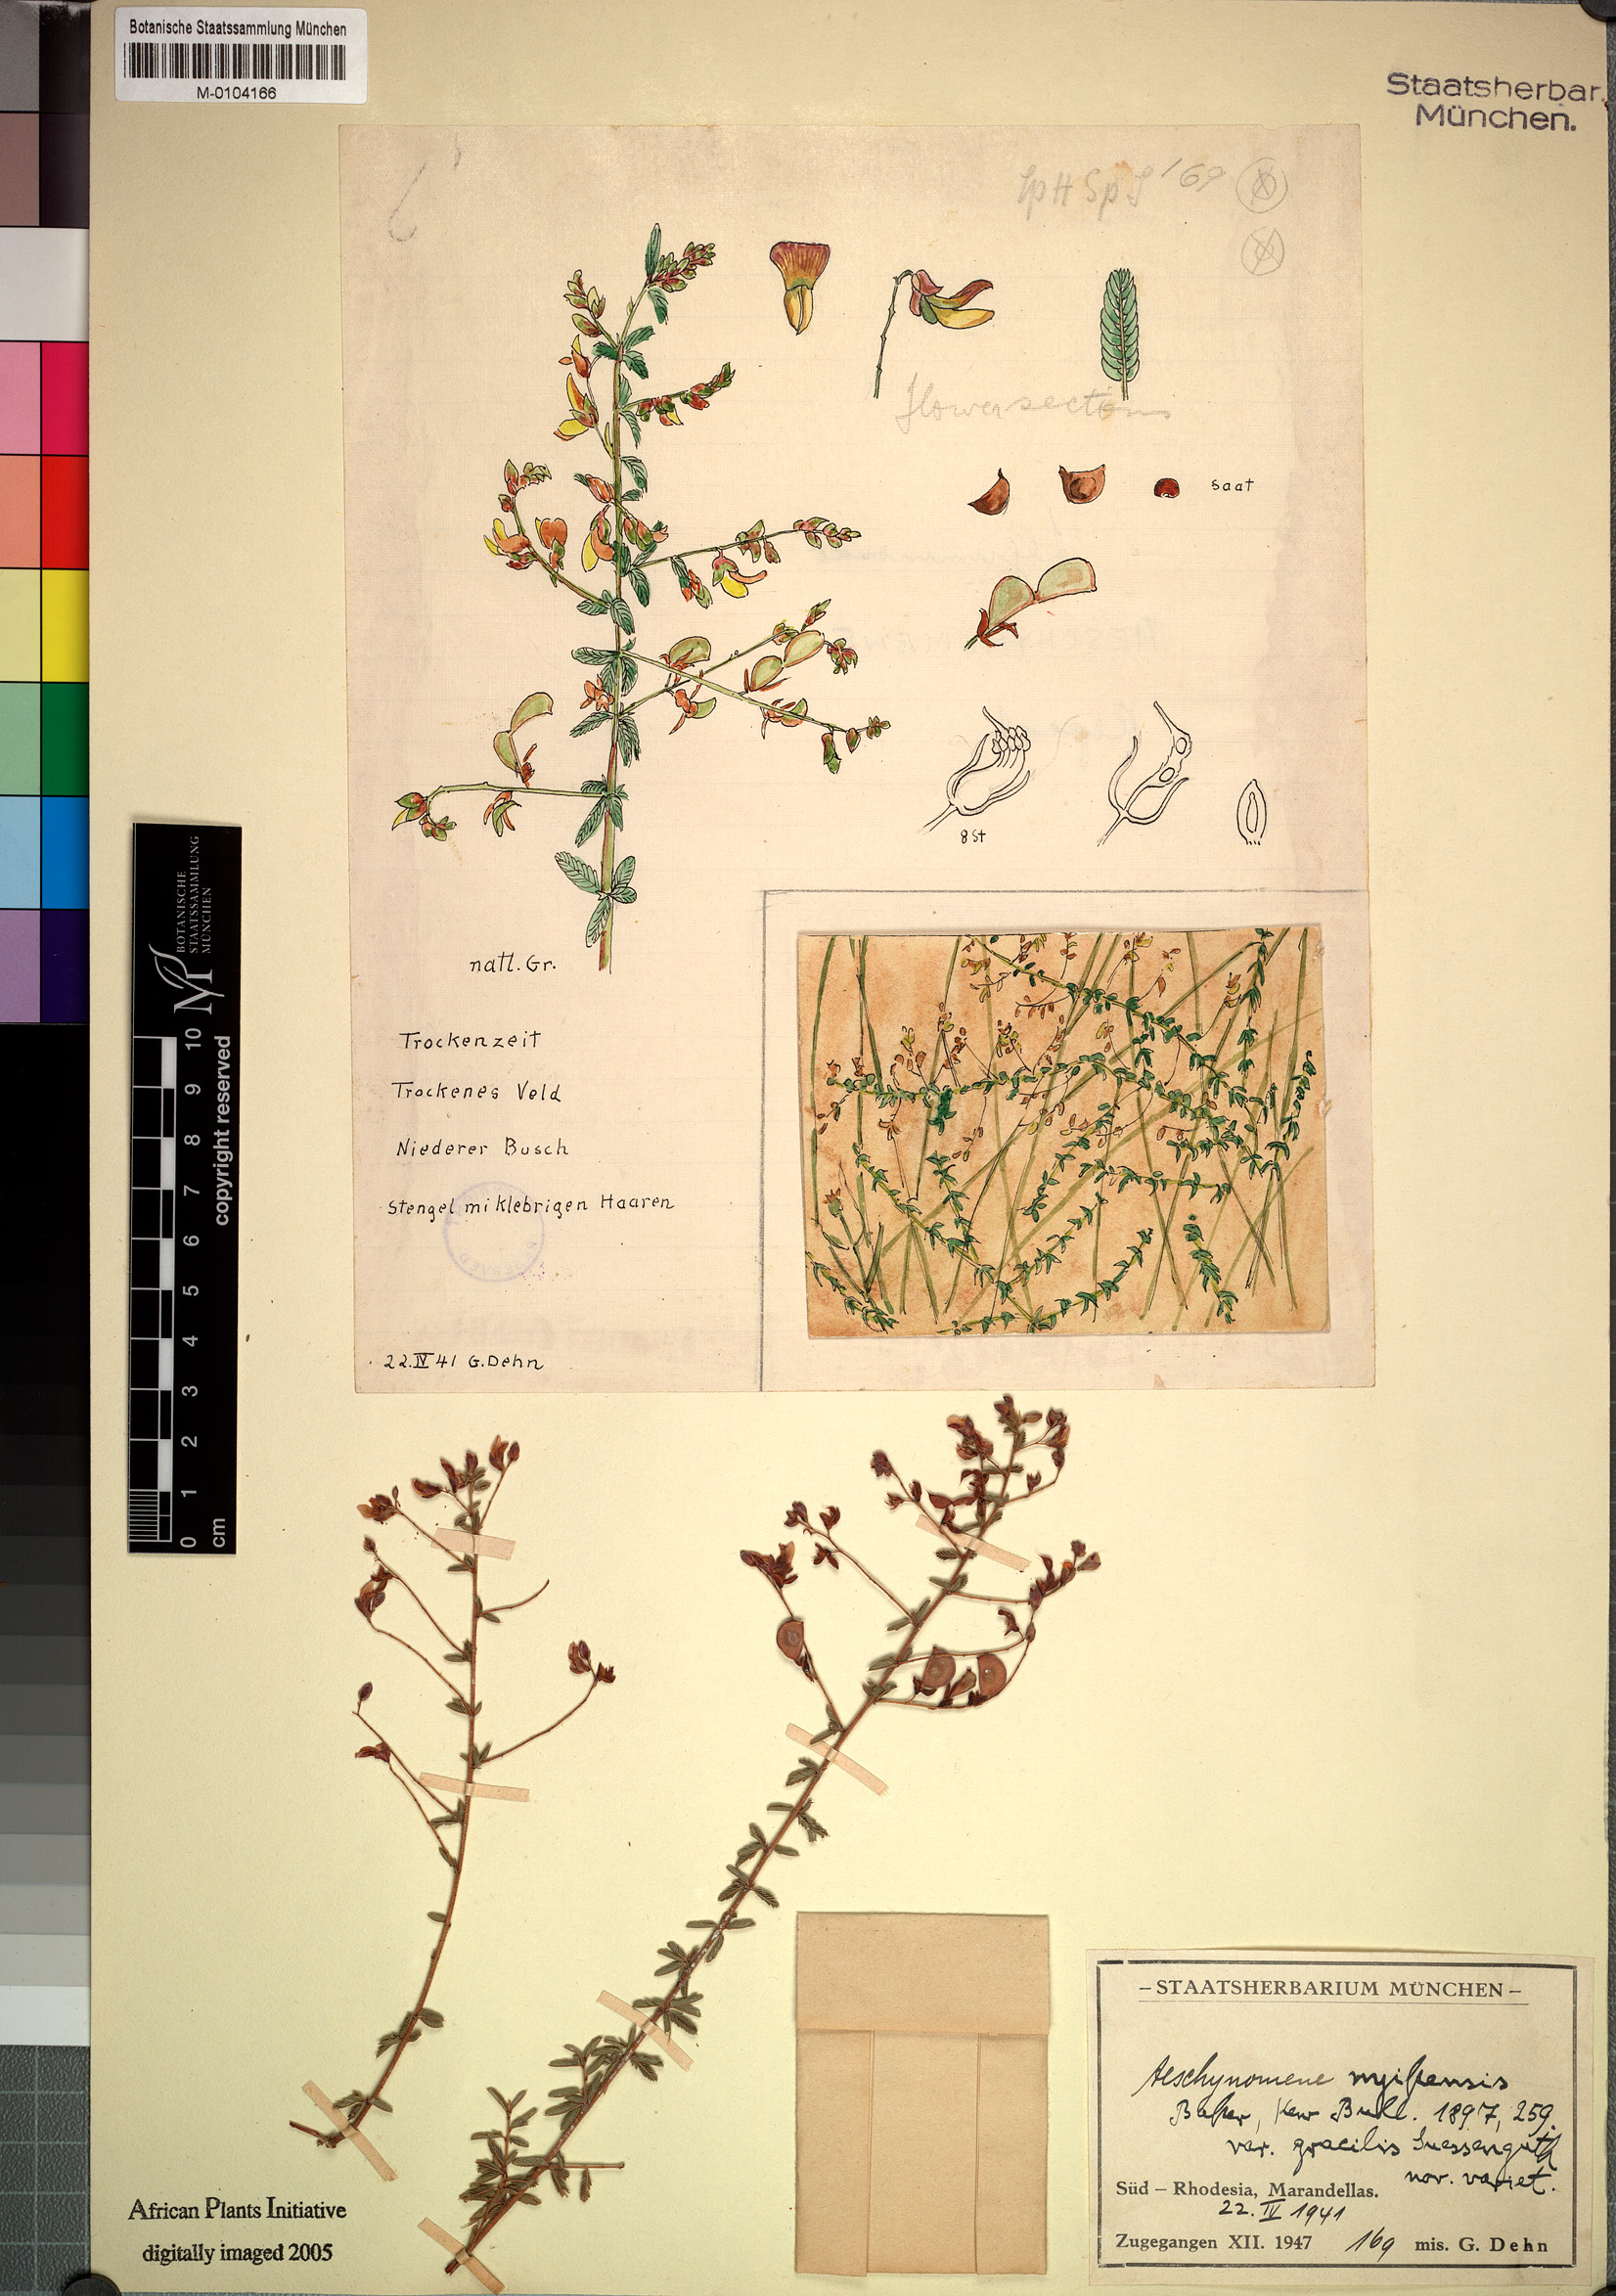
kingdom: Plantae
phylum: Tracheophyta
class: Magnoliopsida
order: Fabales
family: Fabaceae
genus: Aeschynomene
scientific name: Aeschynomene mimosifolia
